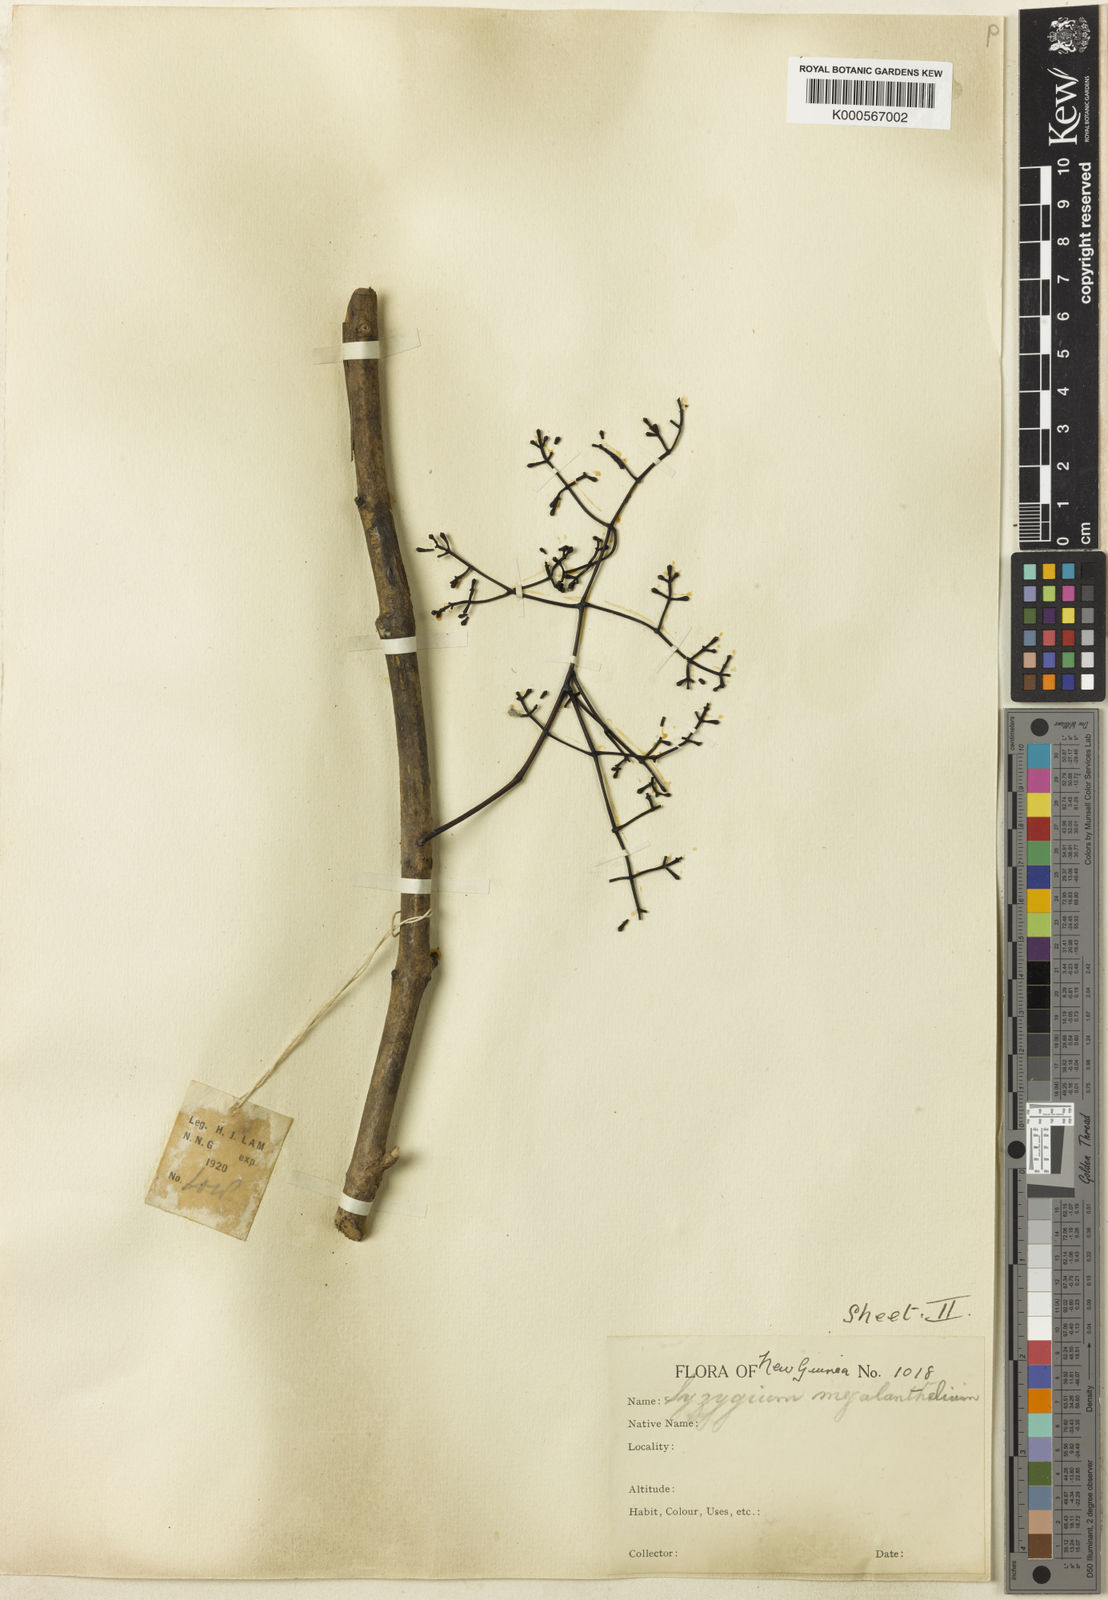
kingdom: Plantae
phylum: Tracheophyta
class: Magnoliopsida
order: Myrtales
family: Myrtaceae
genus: Syzygium
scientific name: Syzygium decipiens
